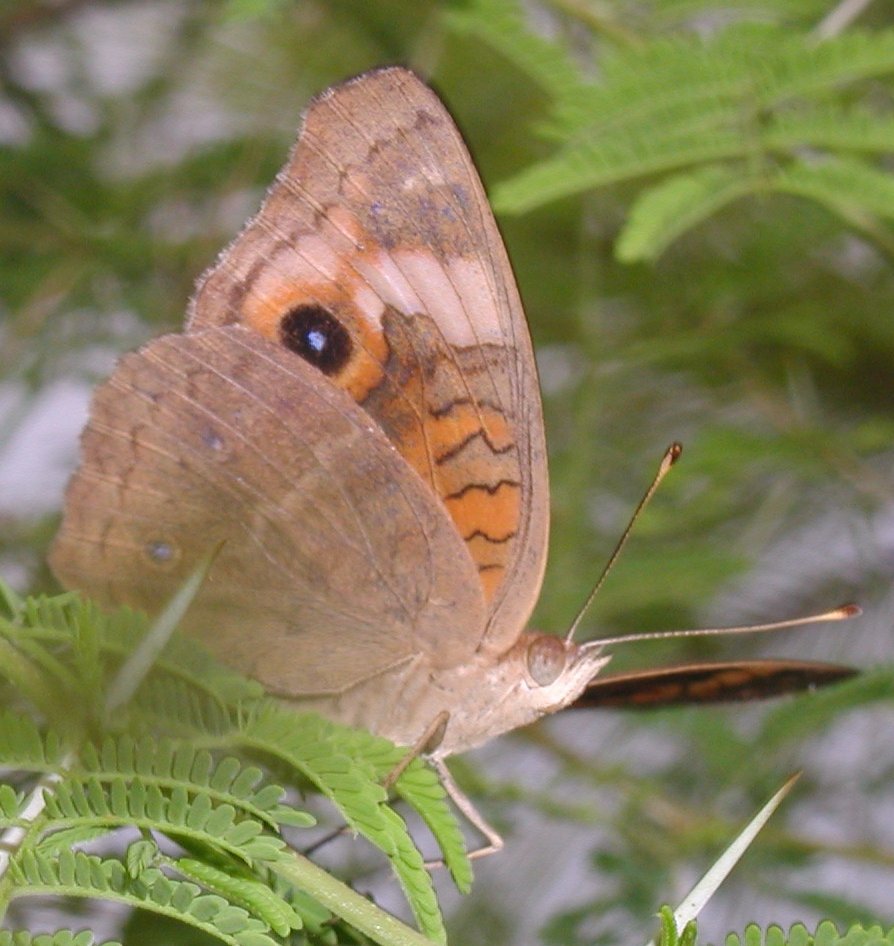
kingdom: Animalia
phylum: Arthropoda
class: Insecta
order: Lepidoptera
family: Nymphalidae
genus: Junonia
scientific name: Junonia evarete
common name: Mangrove Buckeye
